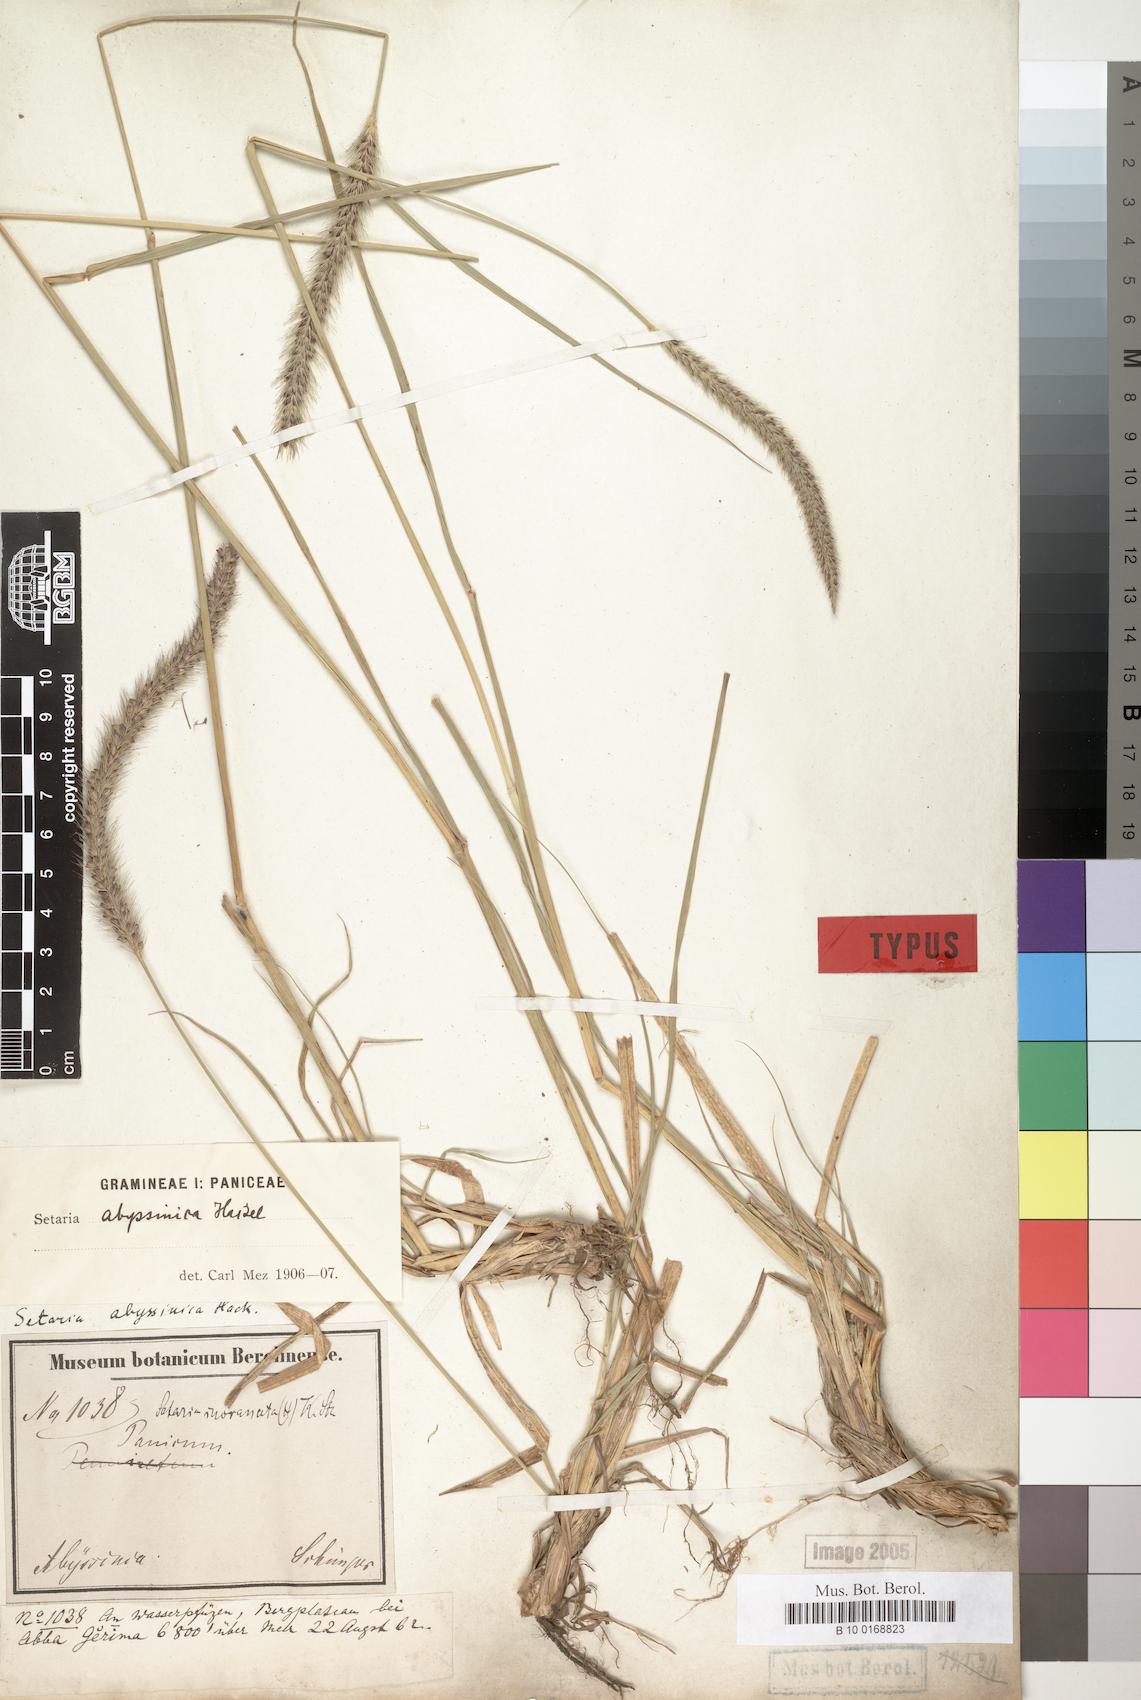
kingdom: Plantae
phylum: Tracheophyta
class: Liliopsida
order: Poales
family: Poaceae
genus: Setaria
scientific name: Setaria incrassata
